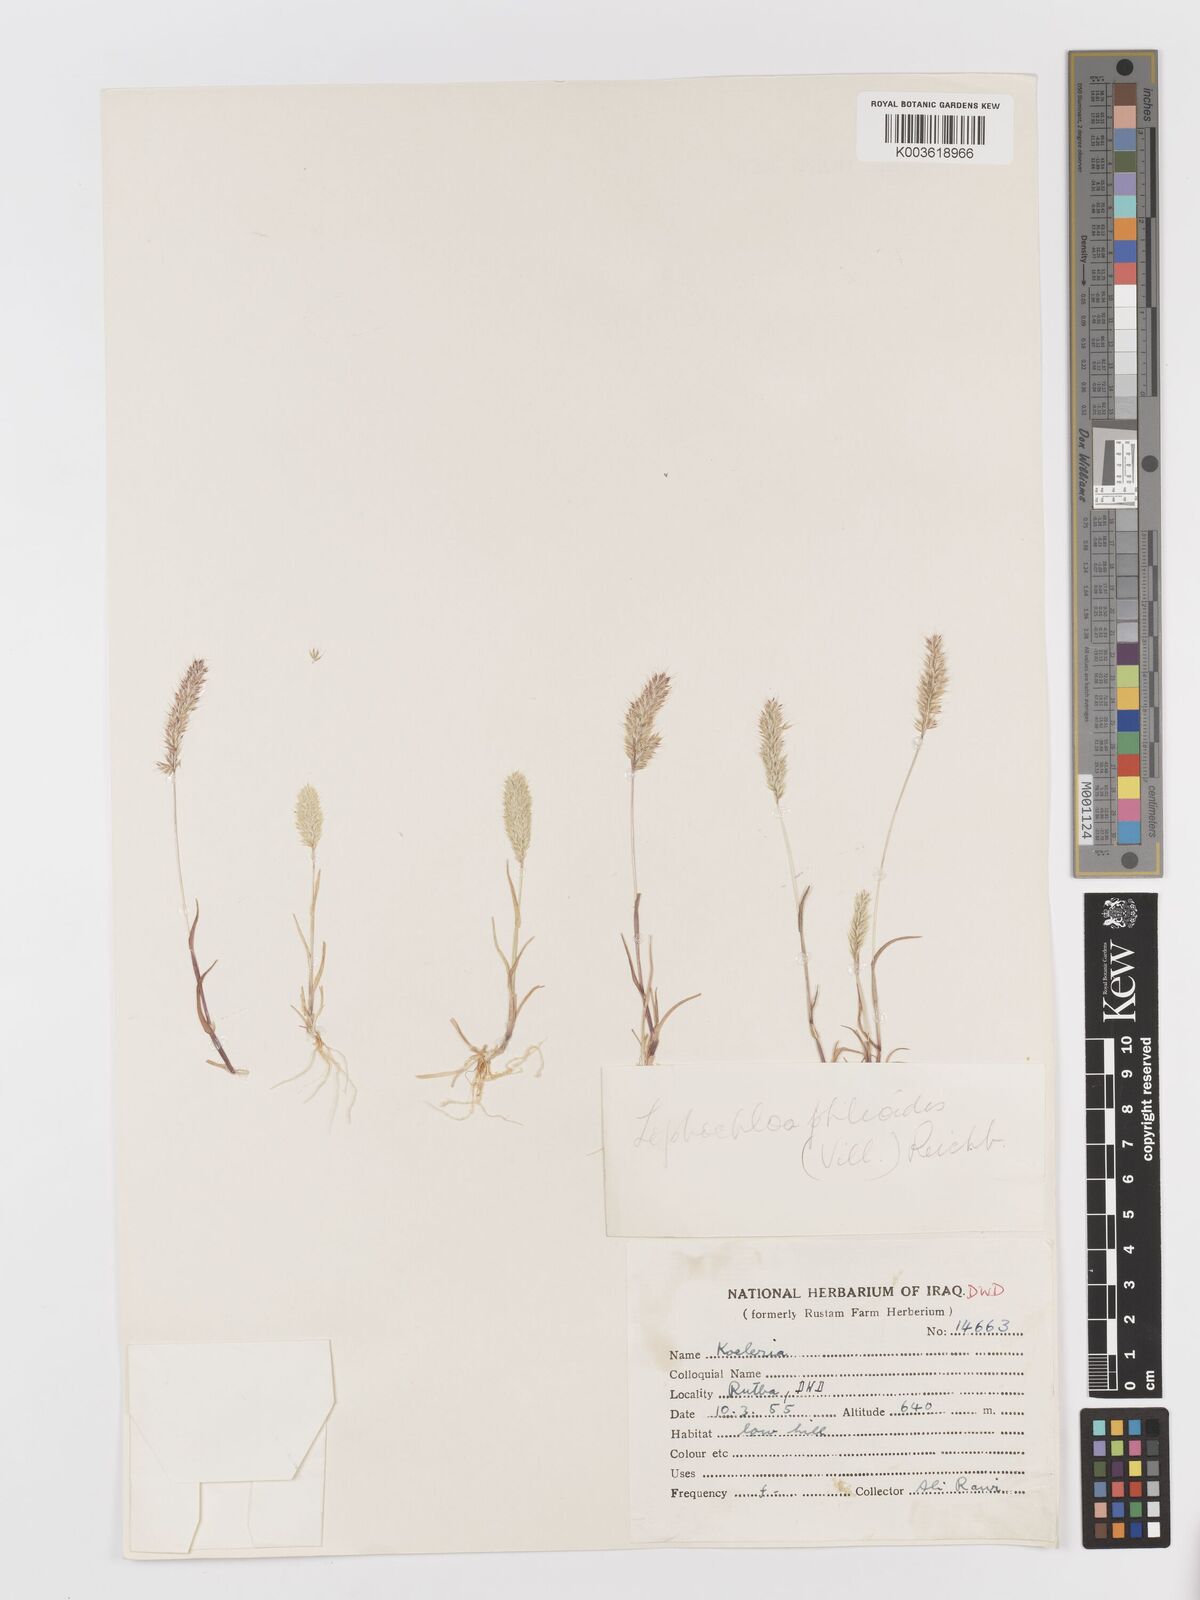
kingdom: Plantae
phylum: Tracheophyta
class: Liliopsida
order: Poales
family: Poaceae
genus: Rostraria
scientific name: Rostraria cristata
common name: Mediterranean hair-grass
